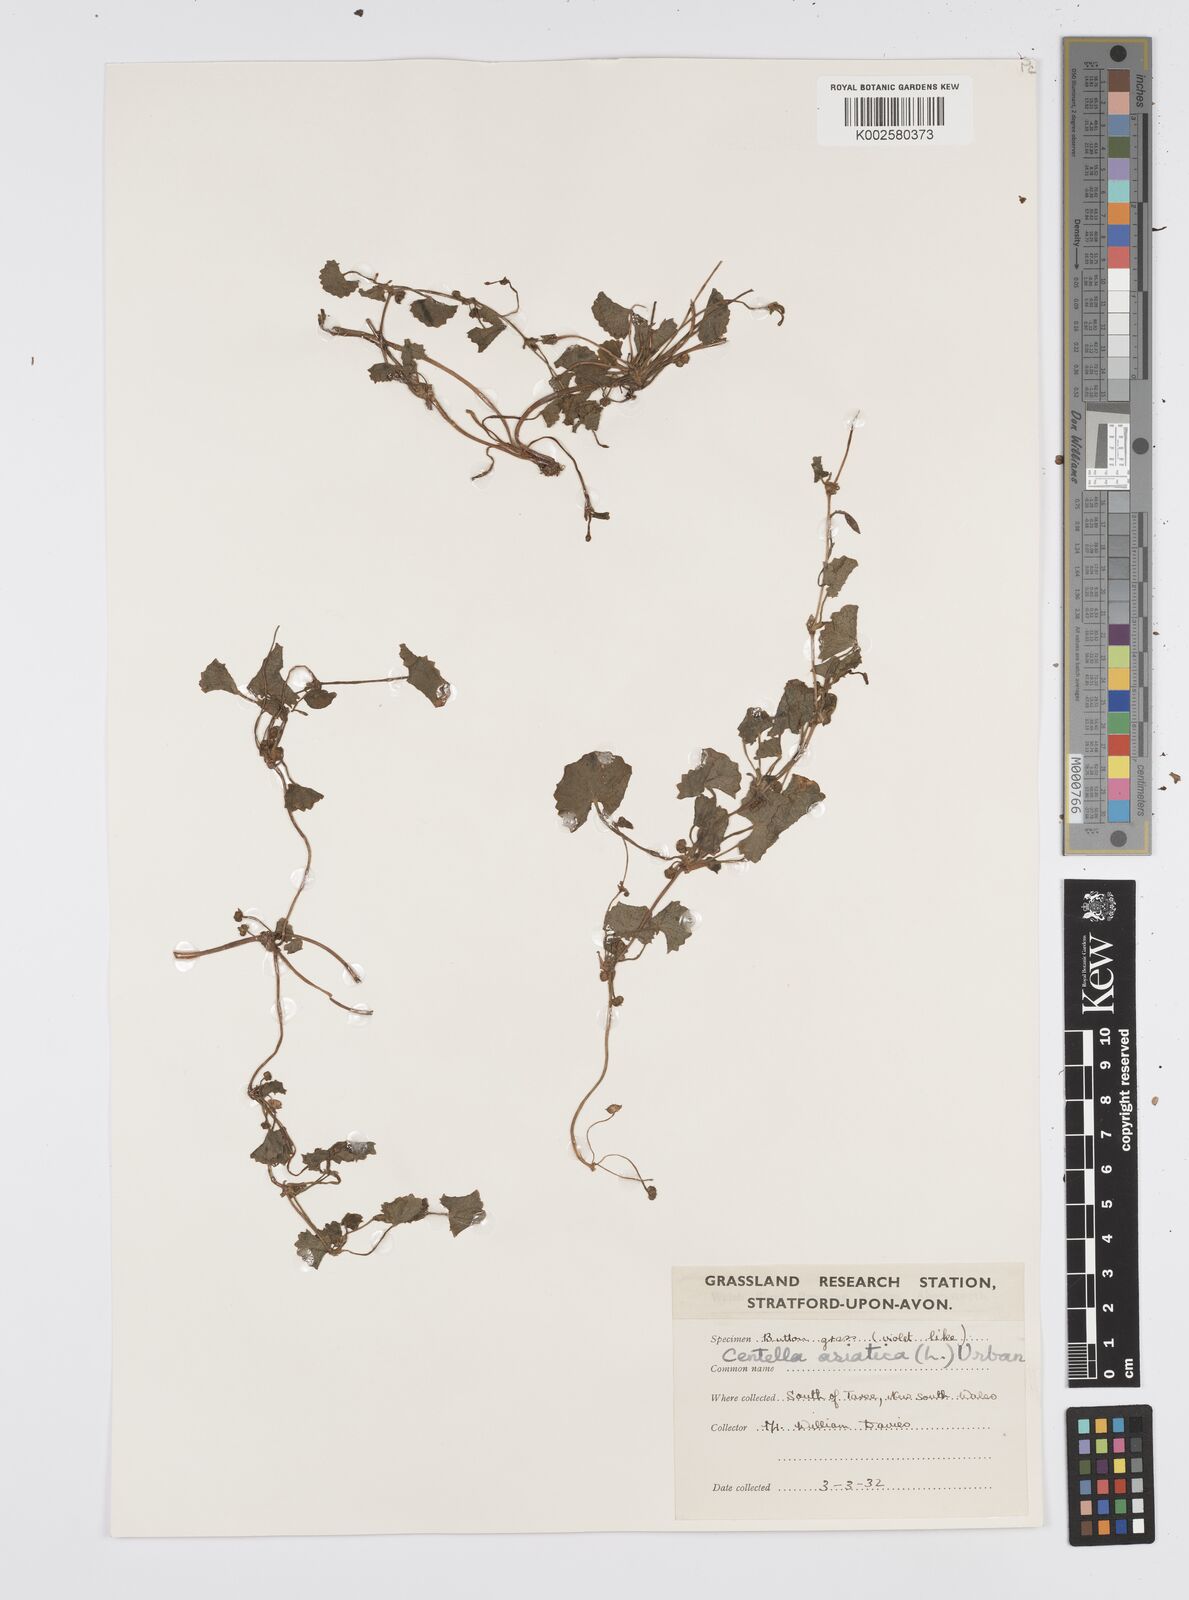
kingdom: Plantae
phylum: Tracheophyta
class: Magnoliopsida
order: Apiales
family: Apiaceae
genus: Centella
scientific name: Centella asiatica
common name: Spadeleaf
